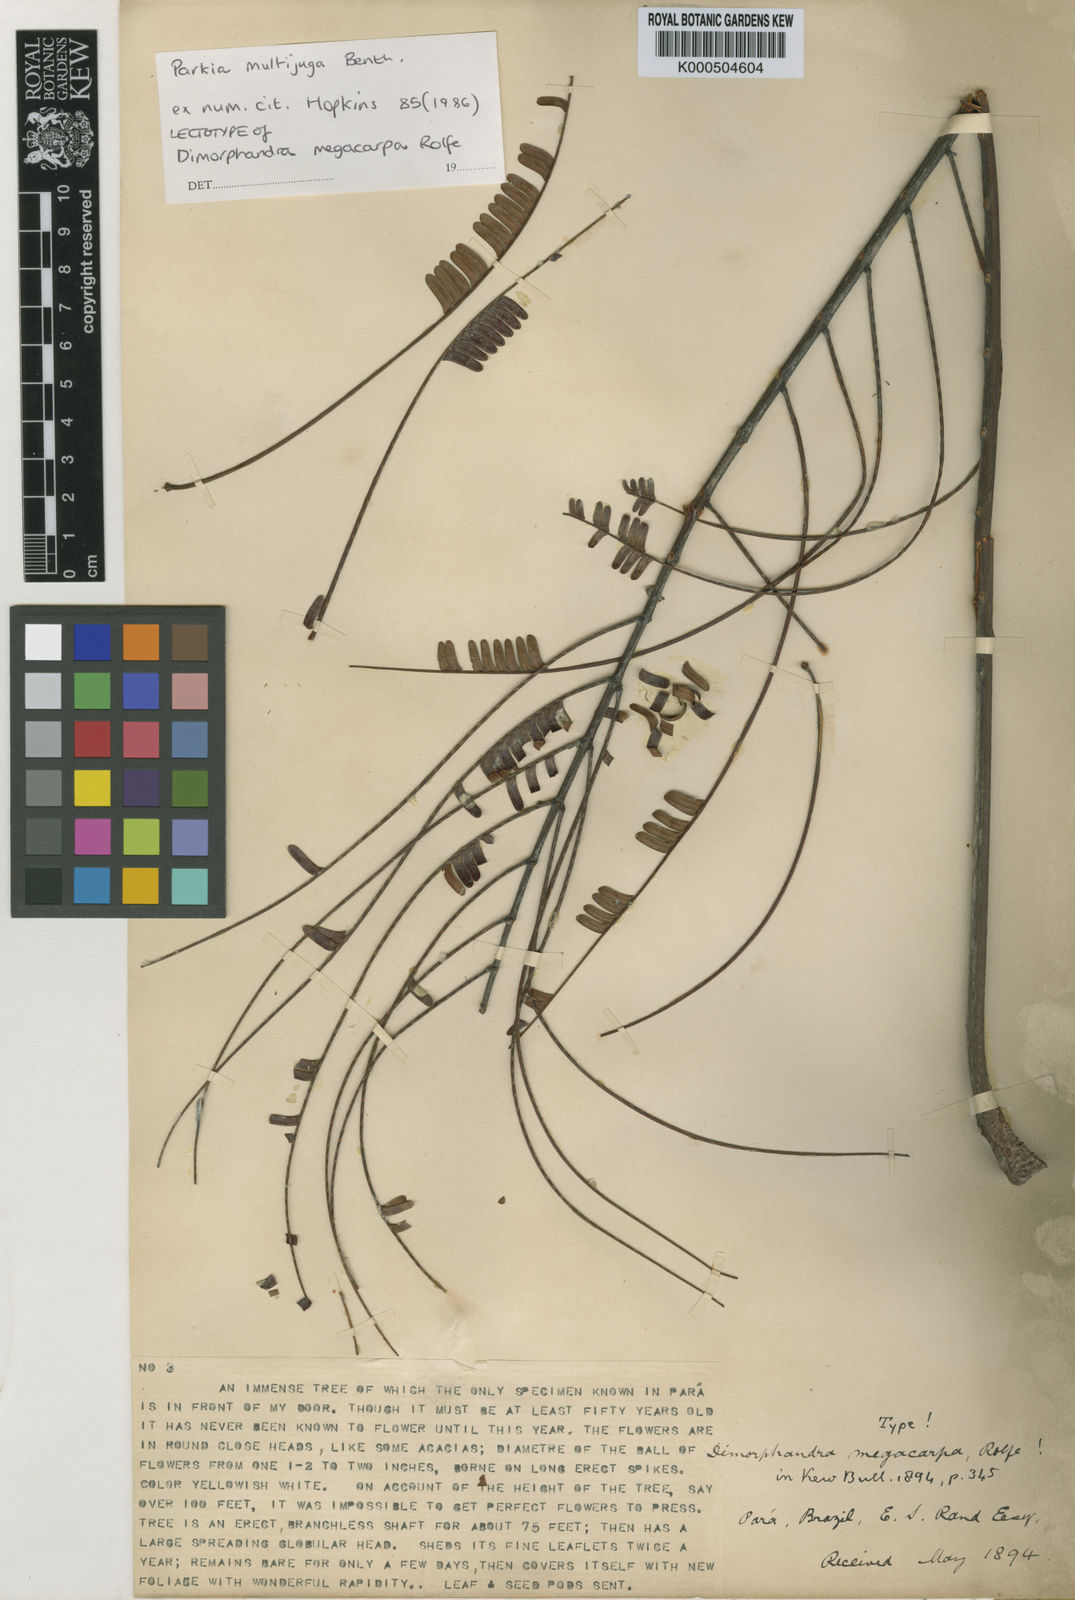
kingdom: Plantae
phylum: Tracheophyta
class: Magnoliopsida
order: Fabales
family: Fabaceae
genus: Parkia
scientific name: Parkia multijuga
